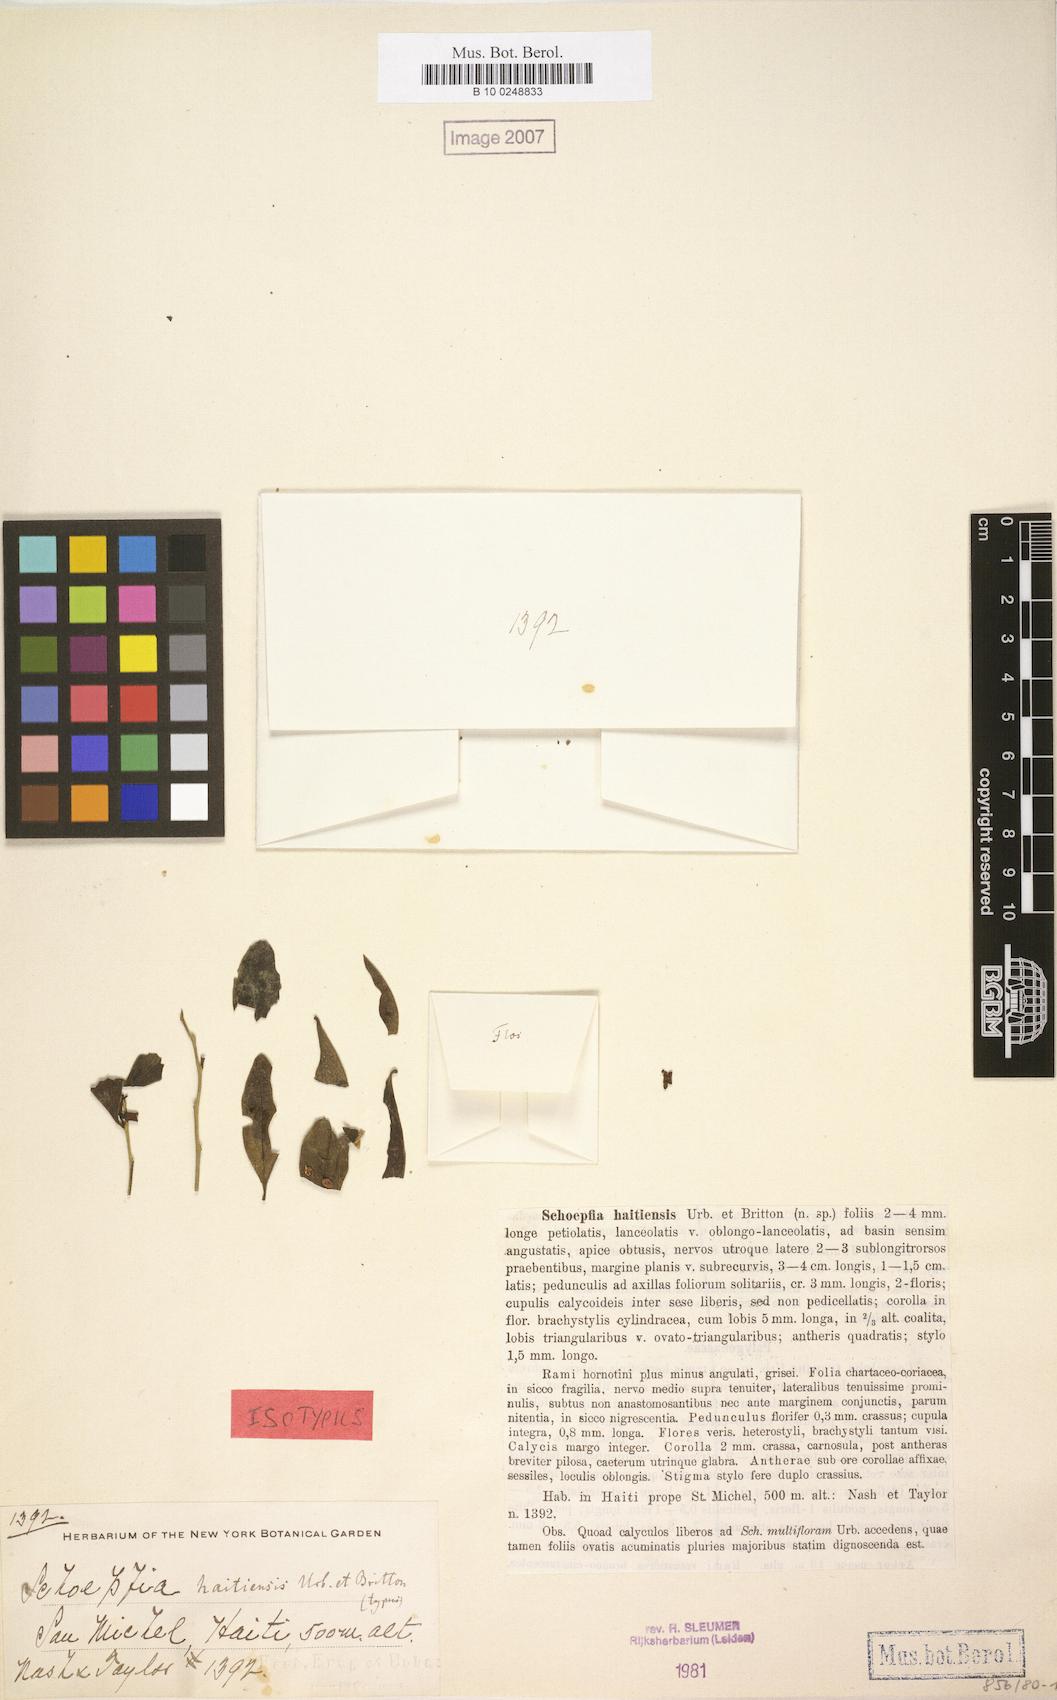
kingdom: Plantae
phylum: Tracheophyta
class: Magnoliopsida
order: Santalales
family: Schoepfiaceae
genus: Schoepfia
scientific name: Schoepfia haitiensis
